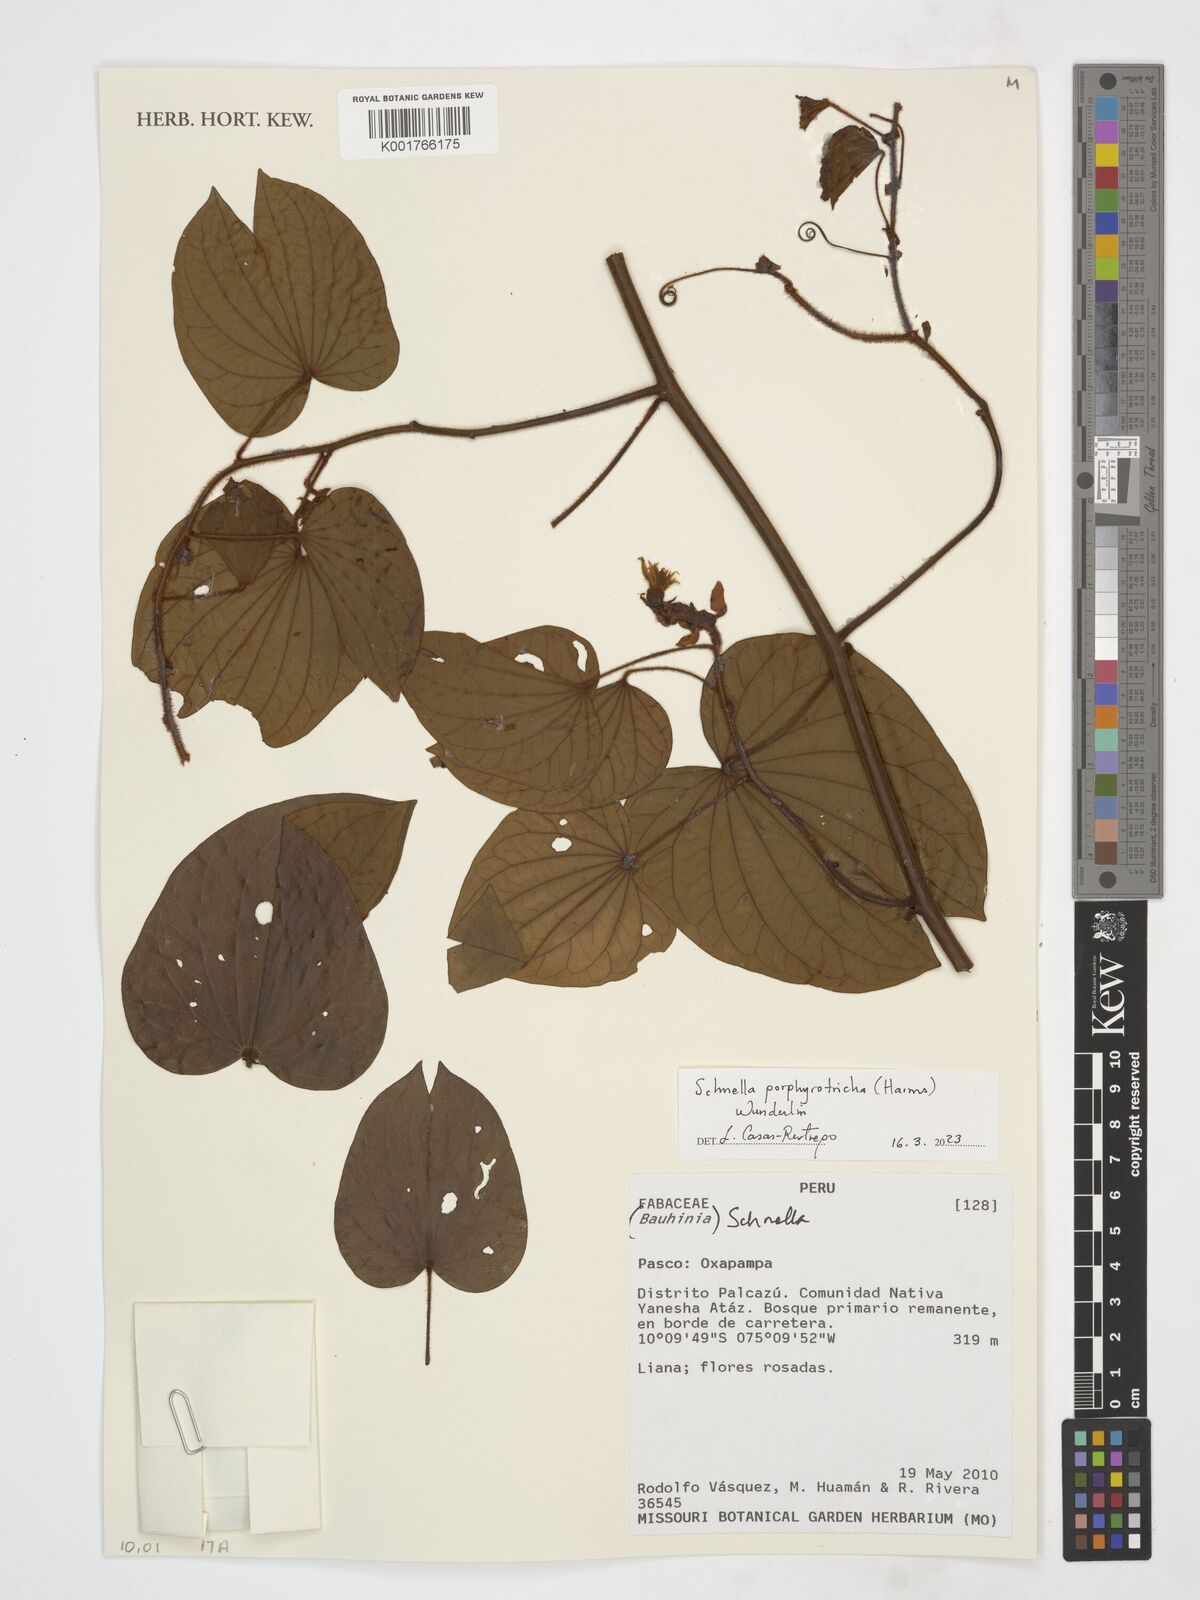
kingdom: Plantae
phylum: Tracheophyta
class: Magnoliopsida
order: Fabales
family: Fabaceae
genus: Schnella
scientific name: Schnella porphyrotricha
